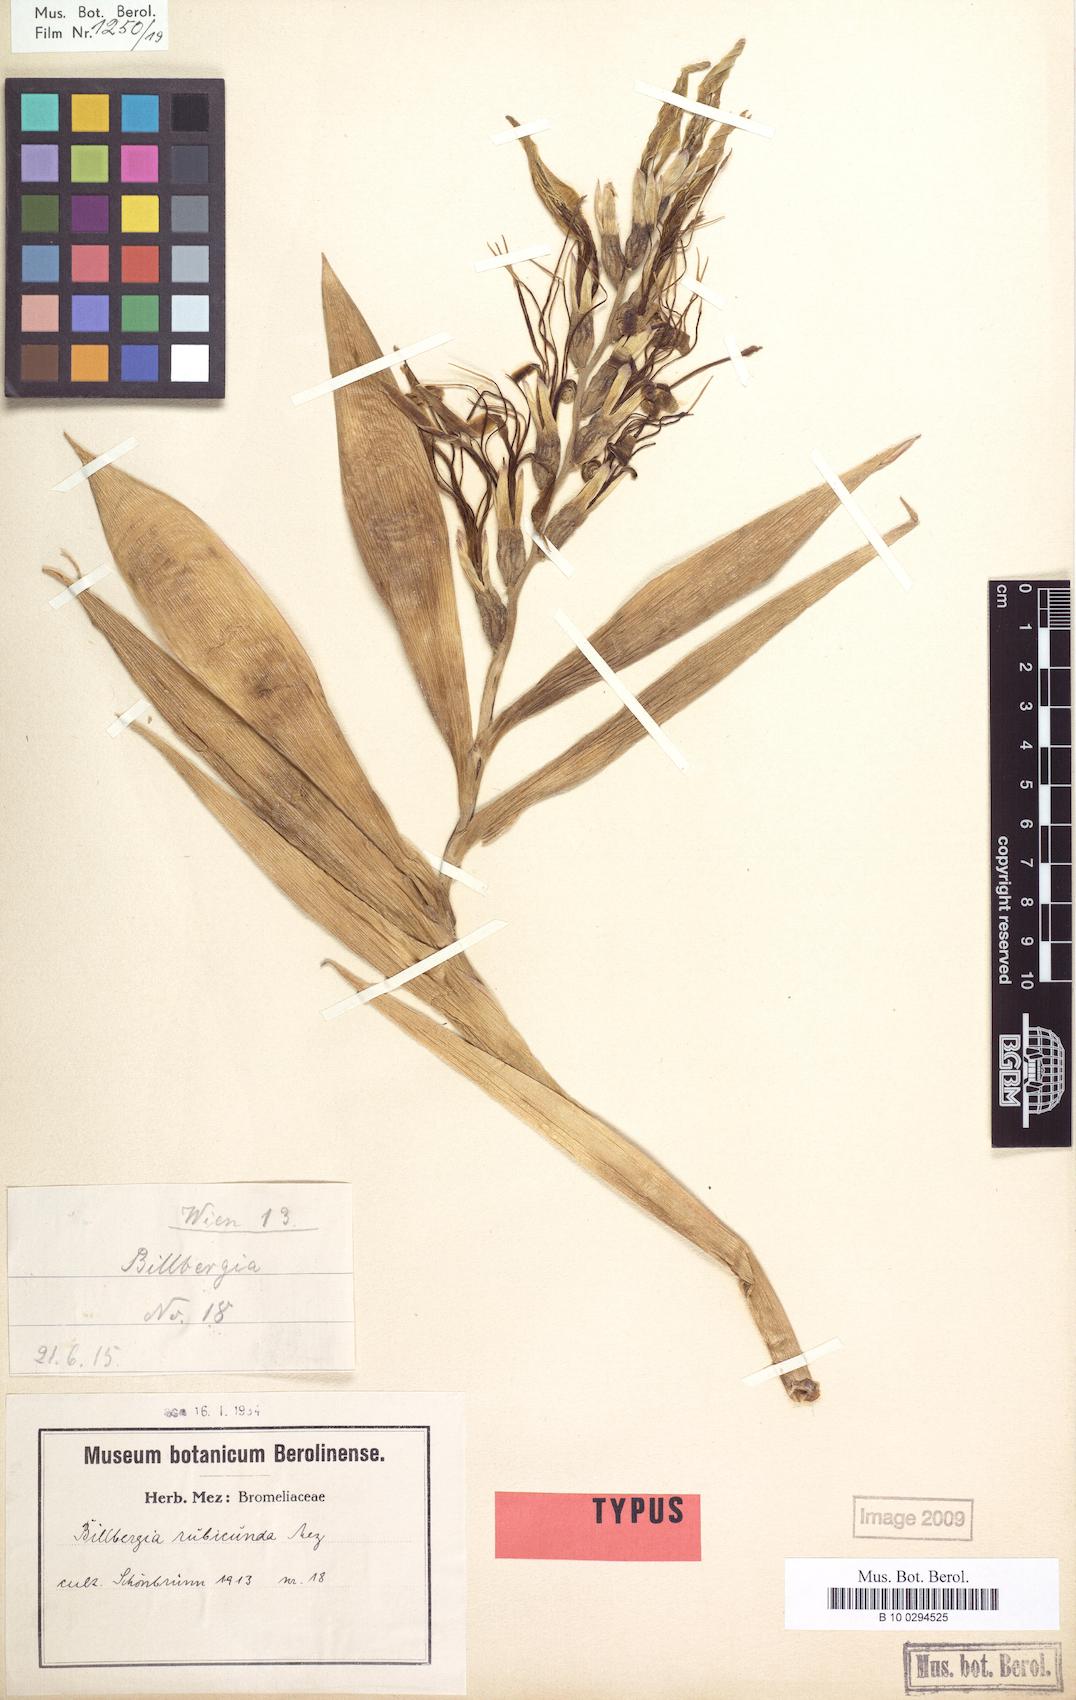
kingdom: Plantae
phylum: Tracheophyta
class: Liliopsida
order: Poales
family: Bromeliaceae
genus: Billbergia
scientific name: Billbergia rubicunda
